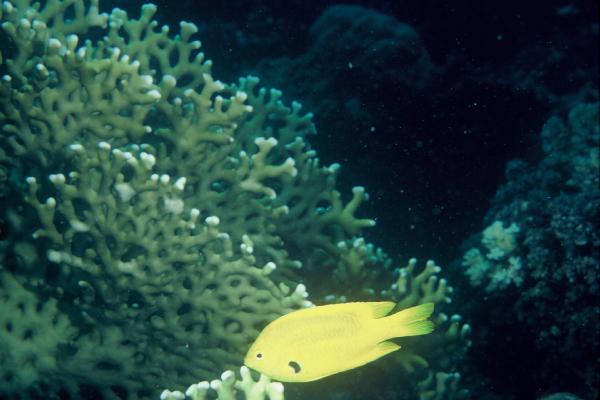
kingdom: Animalia
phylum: Chordata
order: Perciformes
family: Pomacentridae
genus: Pomacentrus
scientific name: Pomacentrus sulfureus
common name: Sulfur damsel
